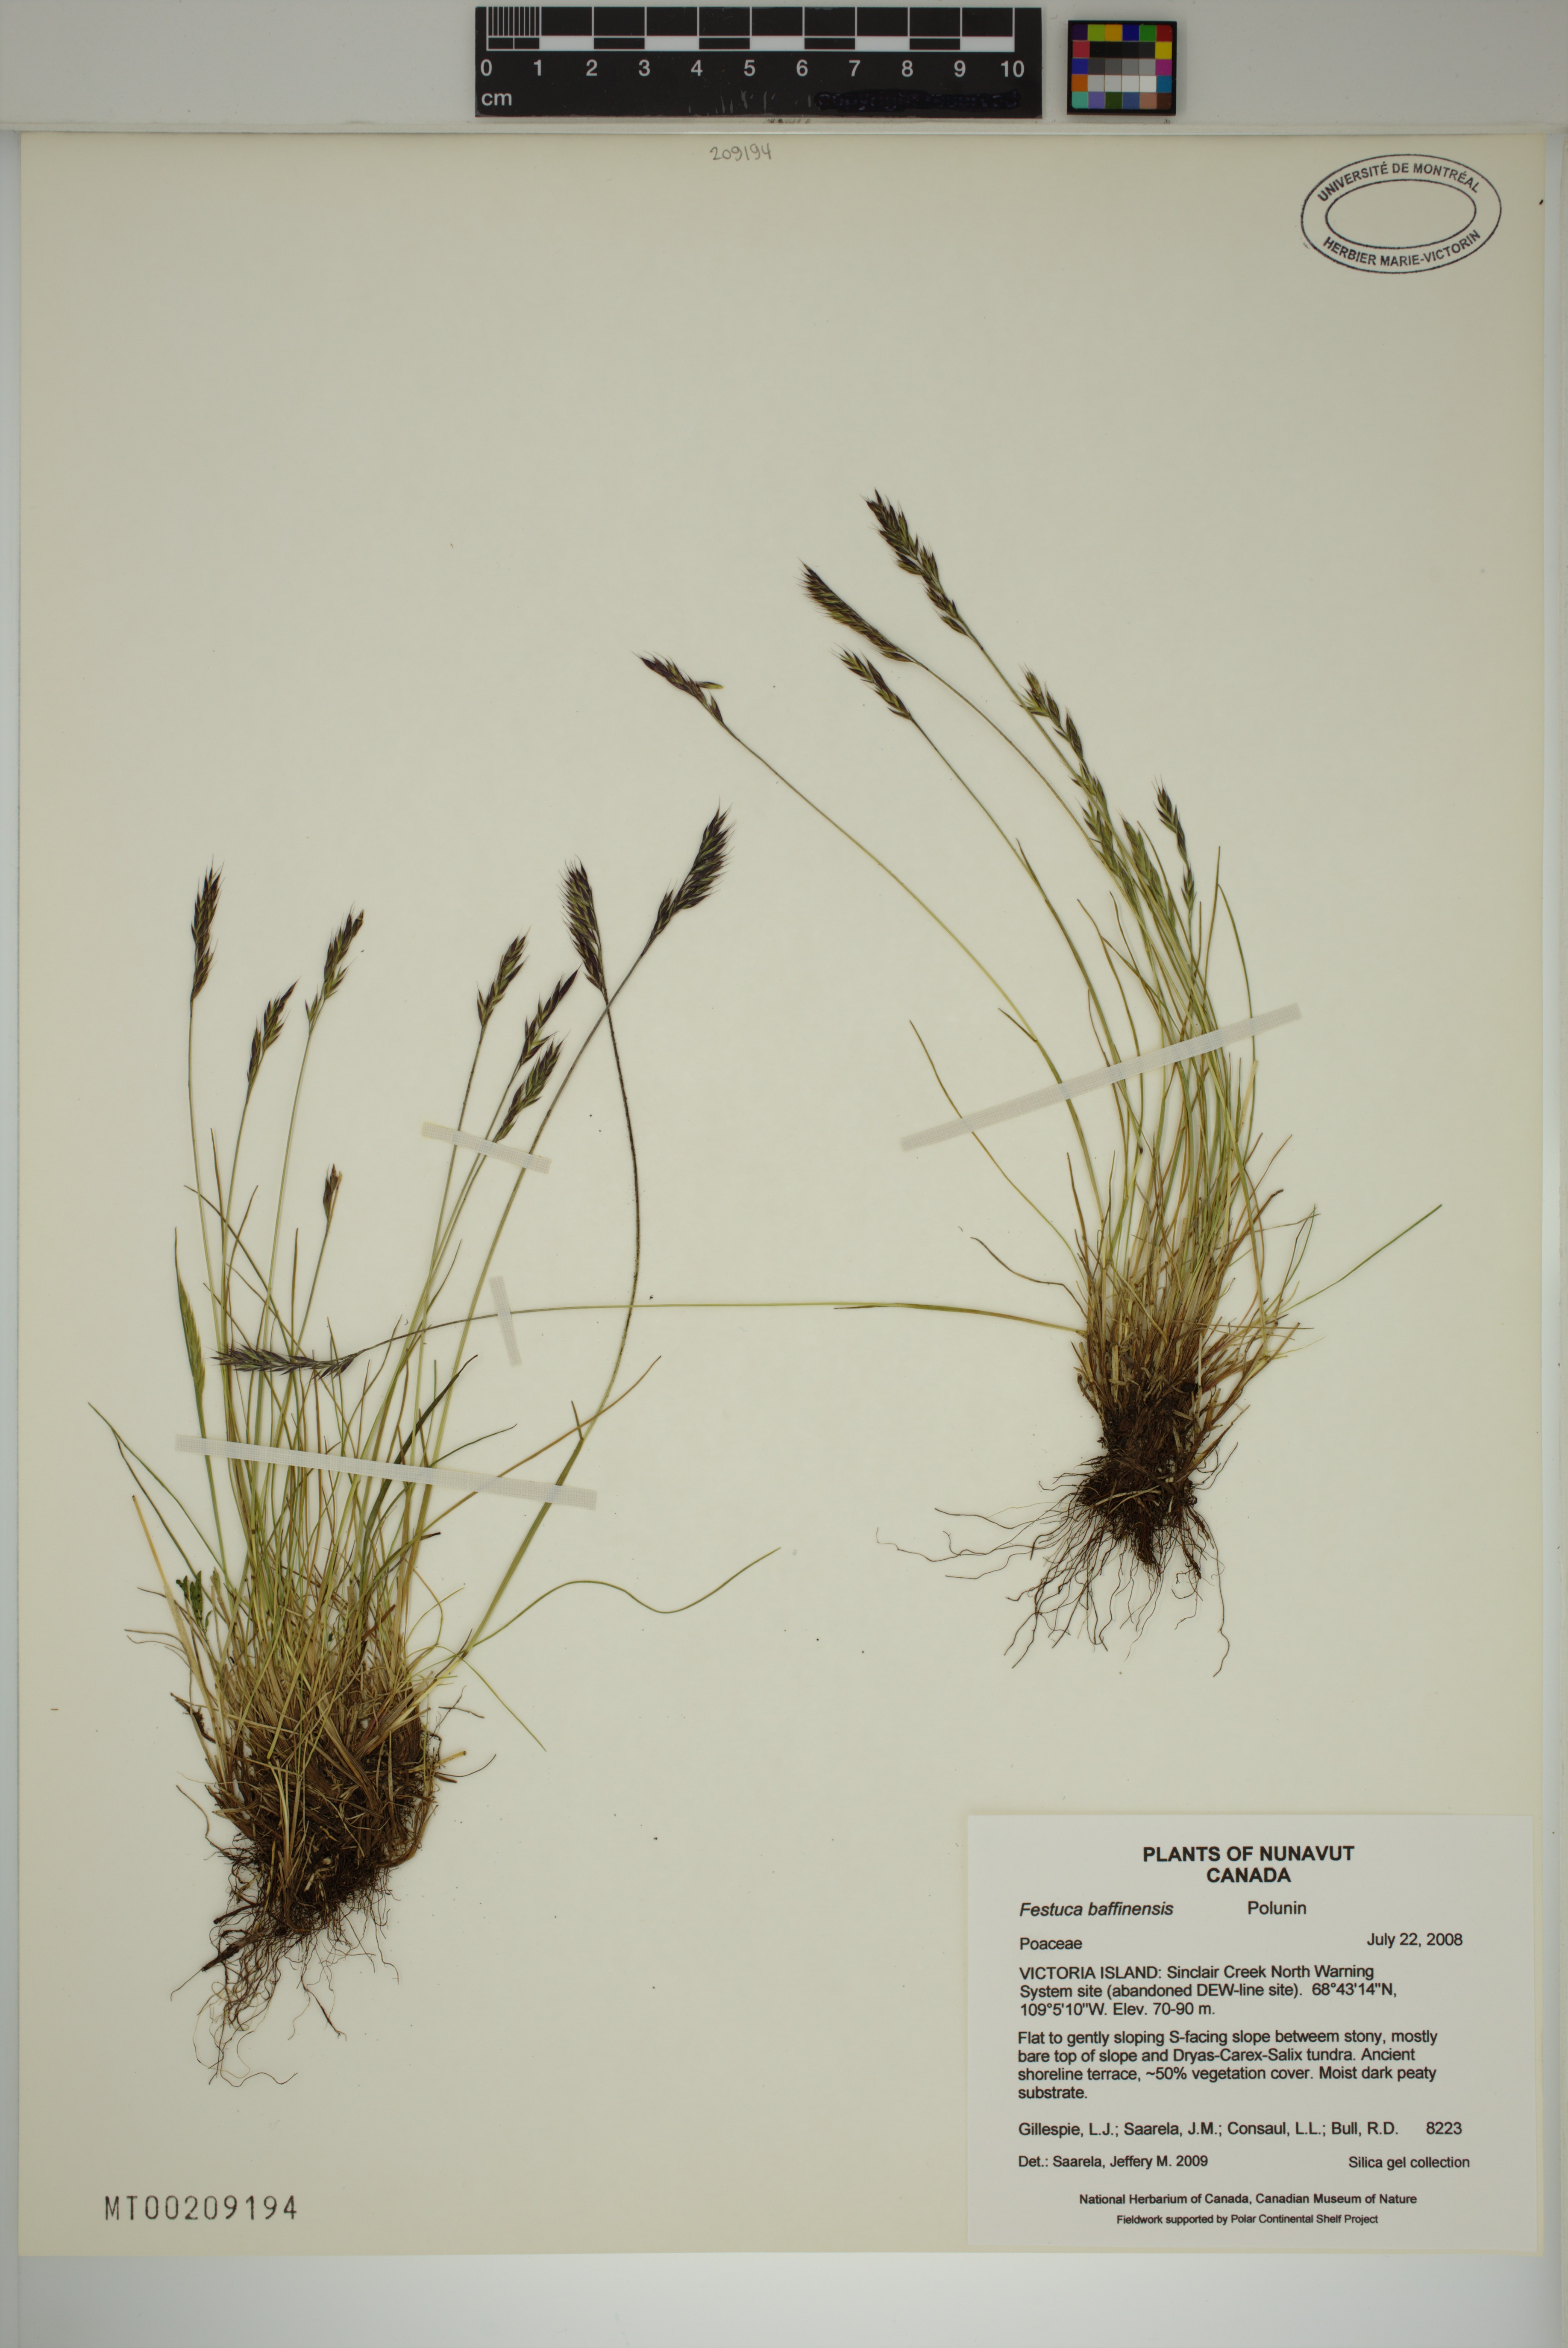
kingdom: Plantae
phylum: Tracheophyta
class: Liliopsida
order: Poales
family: Poaceae
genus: Festuca
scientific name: Festuca baffinensis
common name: Baffin island fescue
